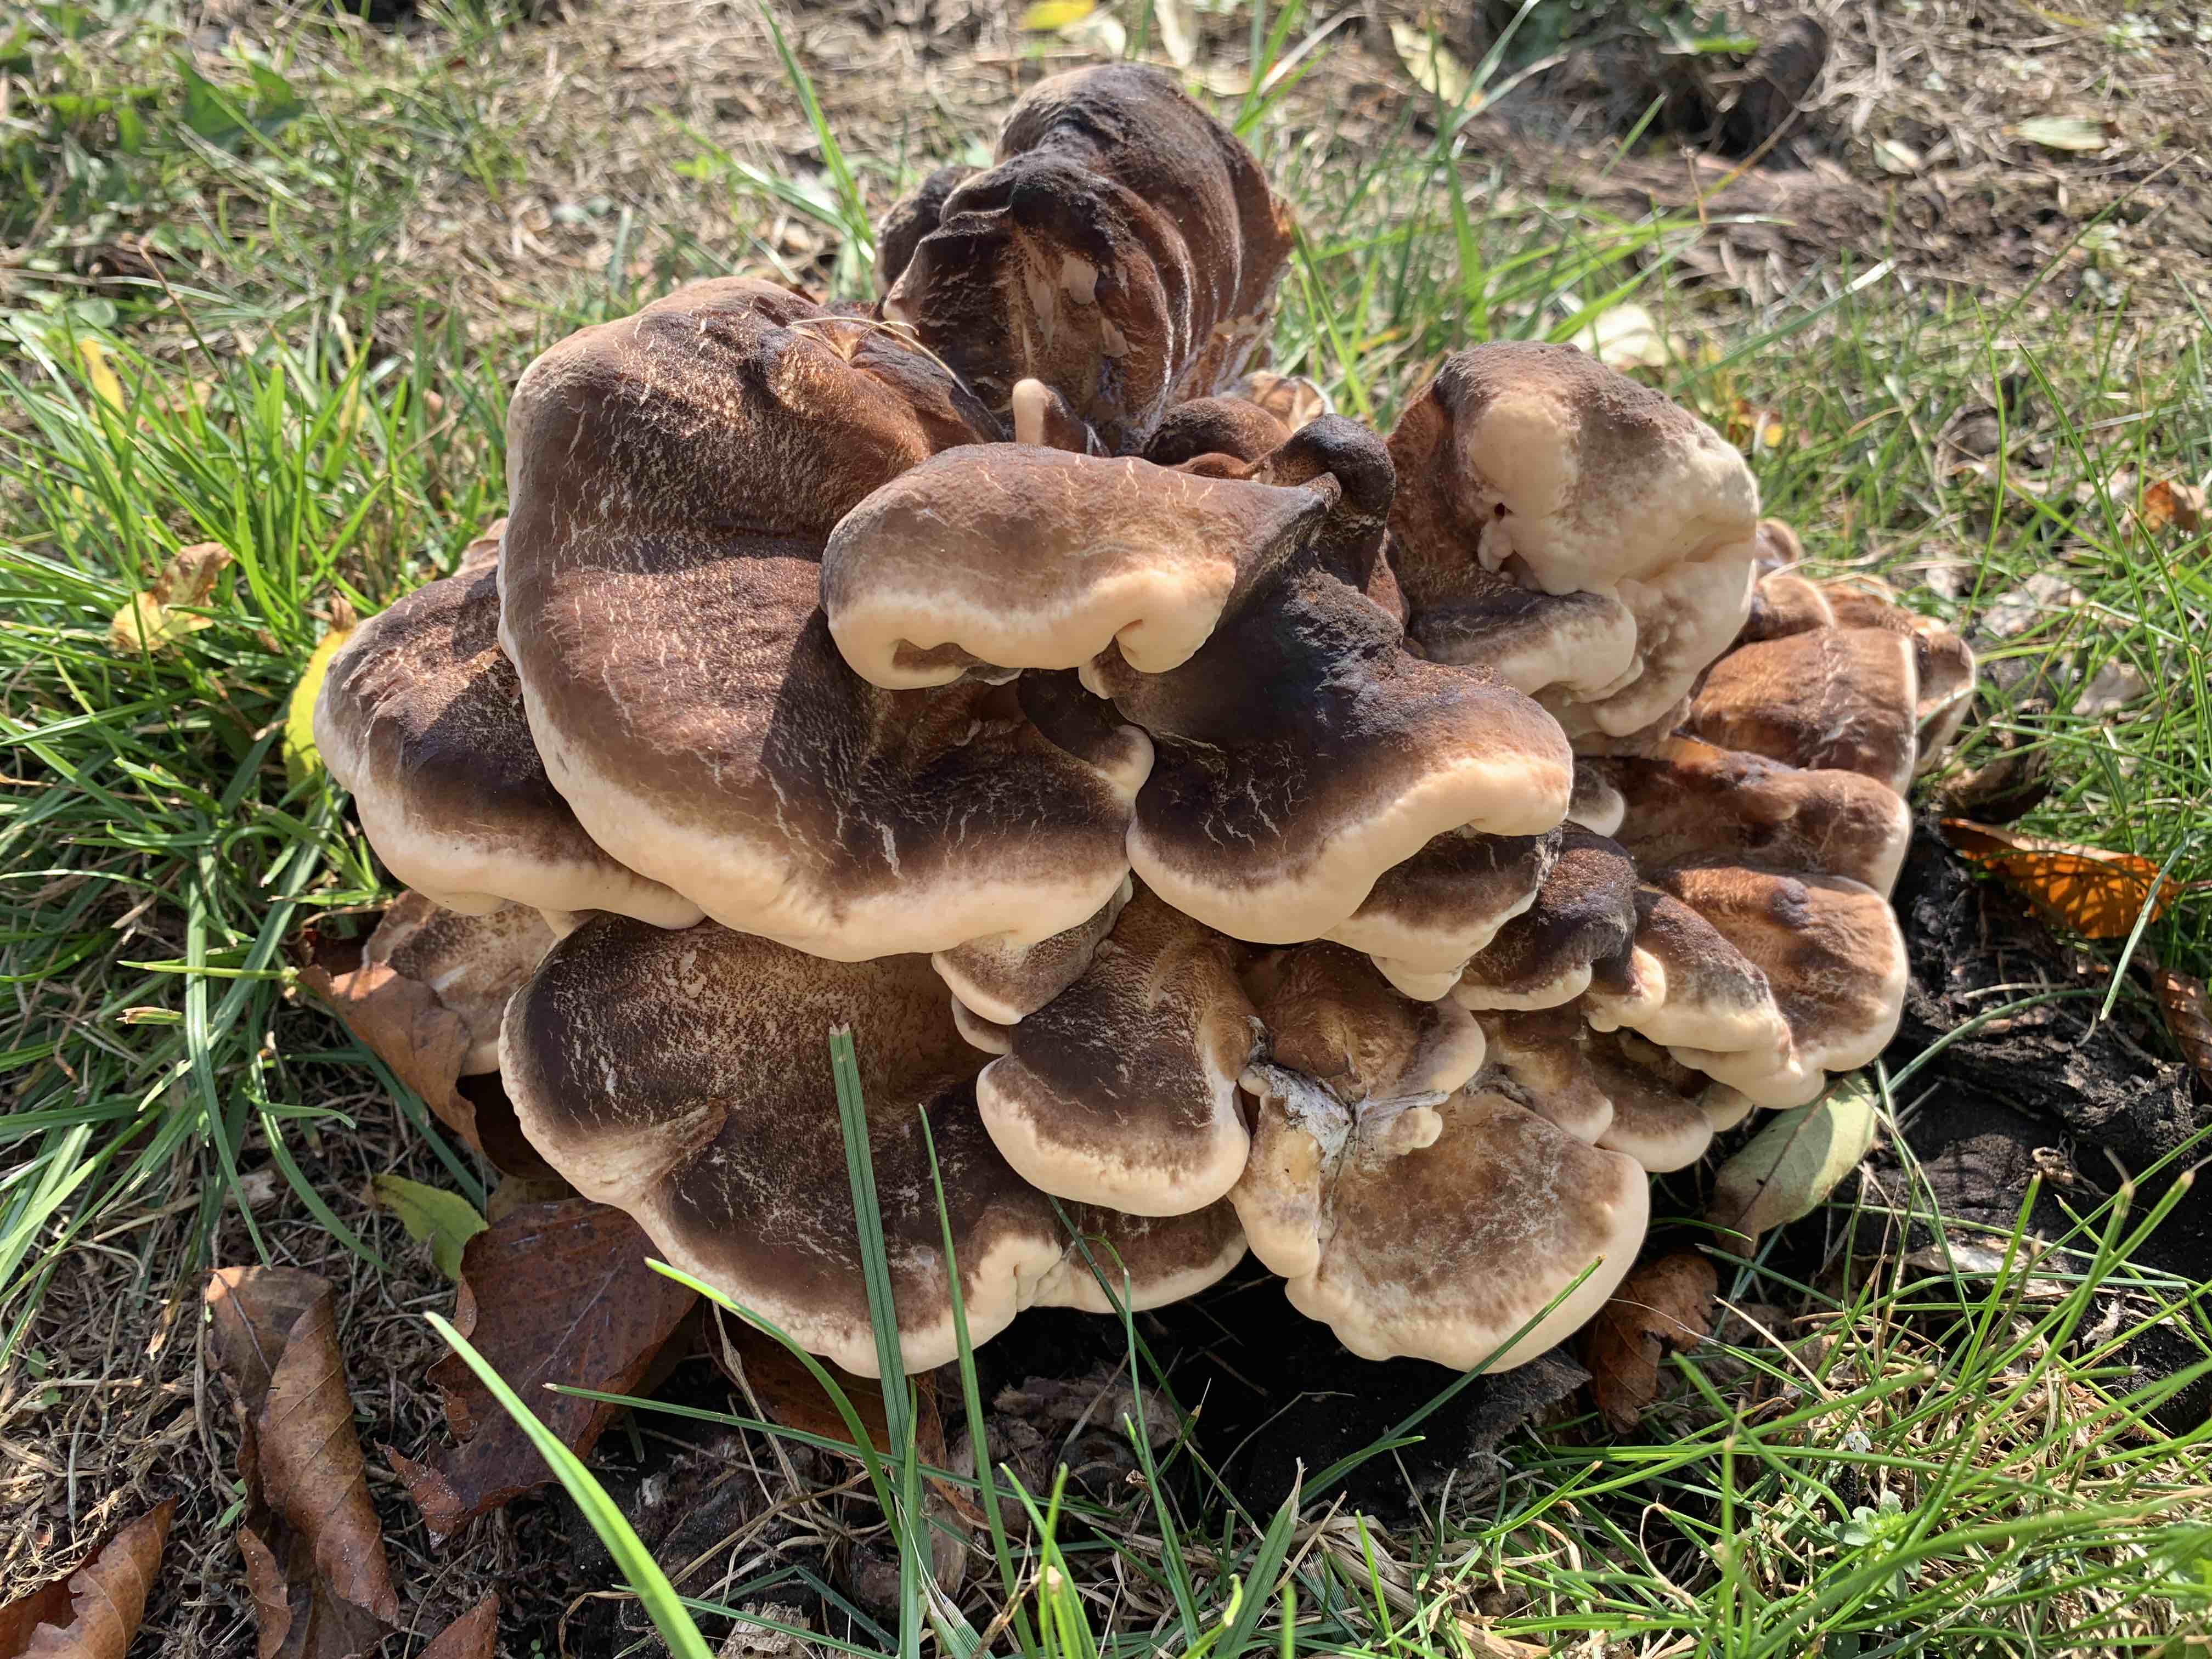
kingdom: Fungi
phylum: Basidiomycota
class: Agaricomycetes
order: Polyporales
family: Meripilaceae
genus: Meripilus
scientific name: Meripilus giganteus
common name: kæmpeporesvamp
